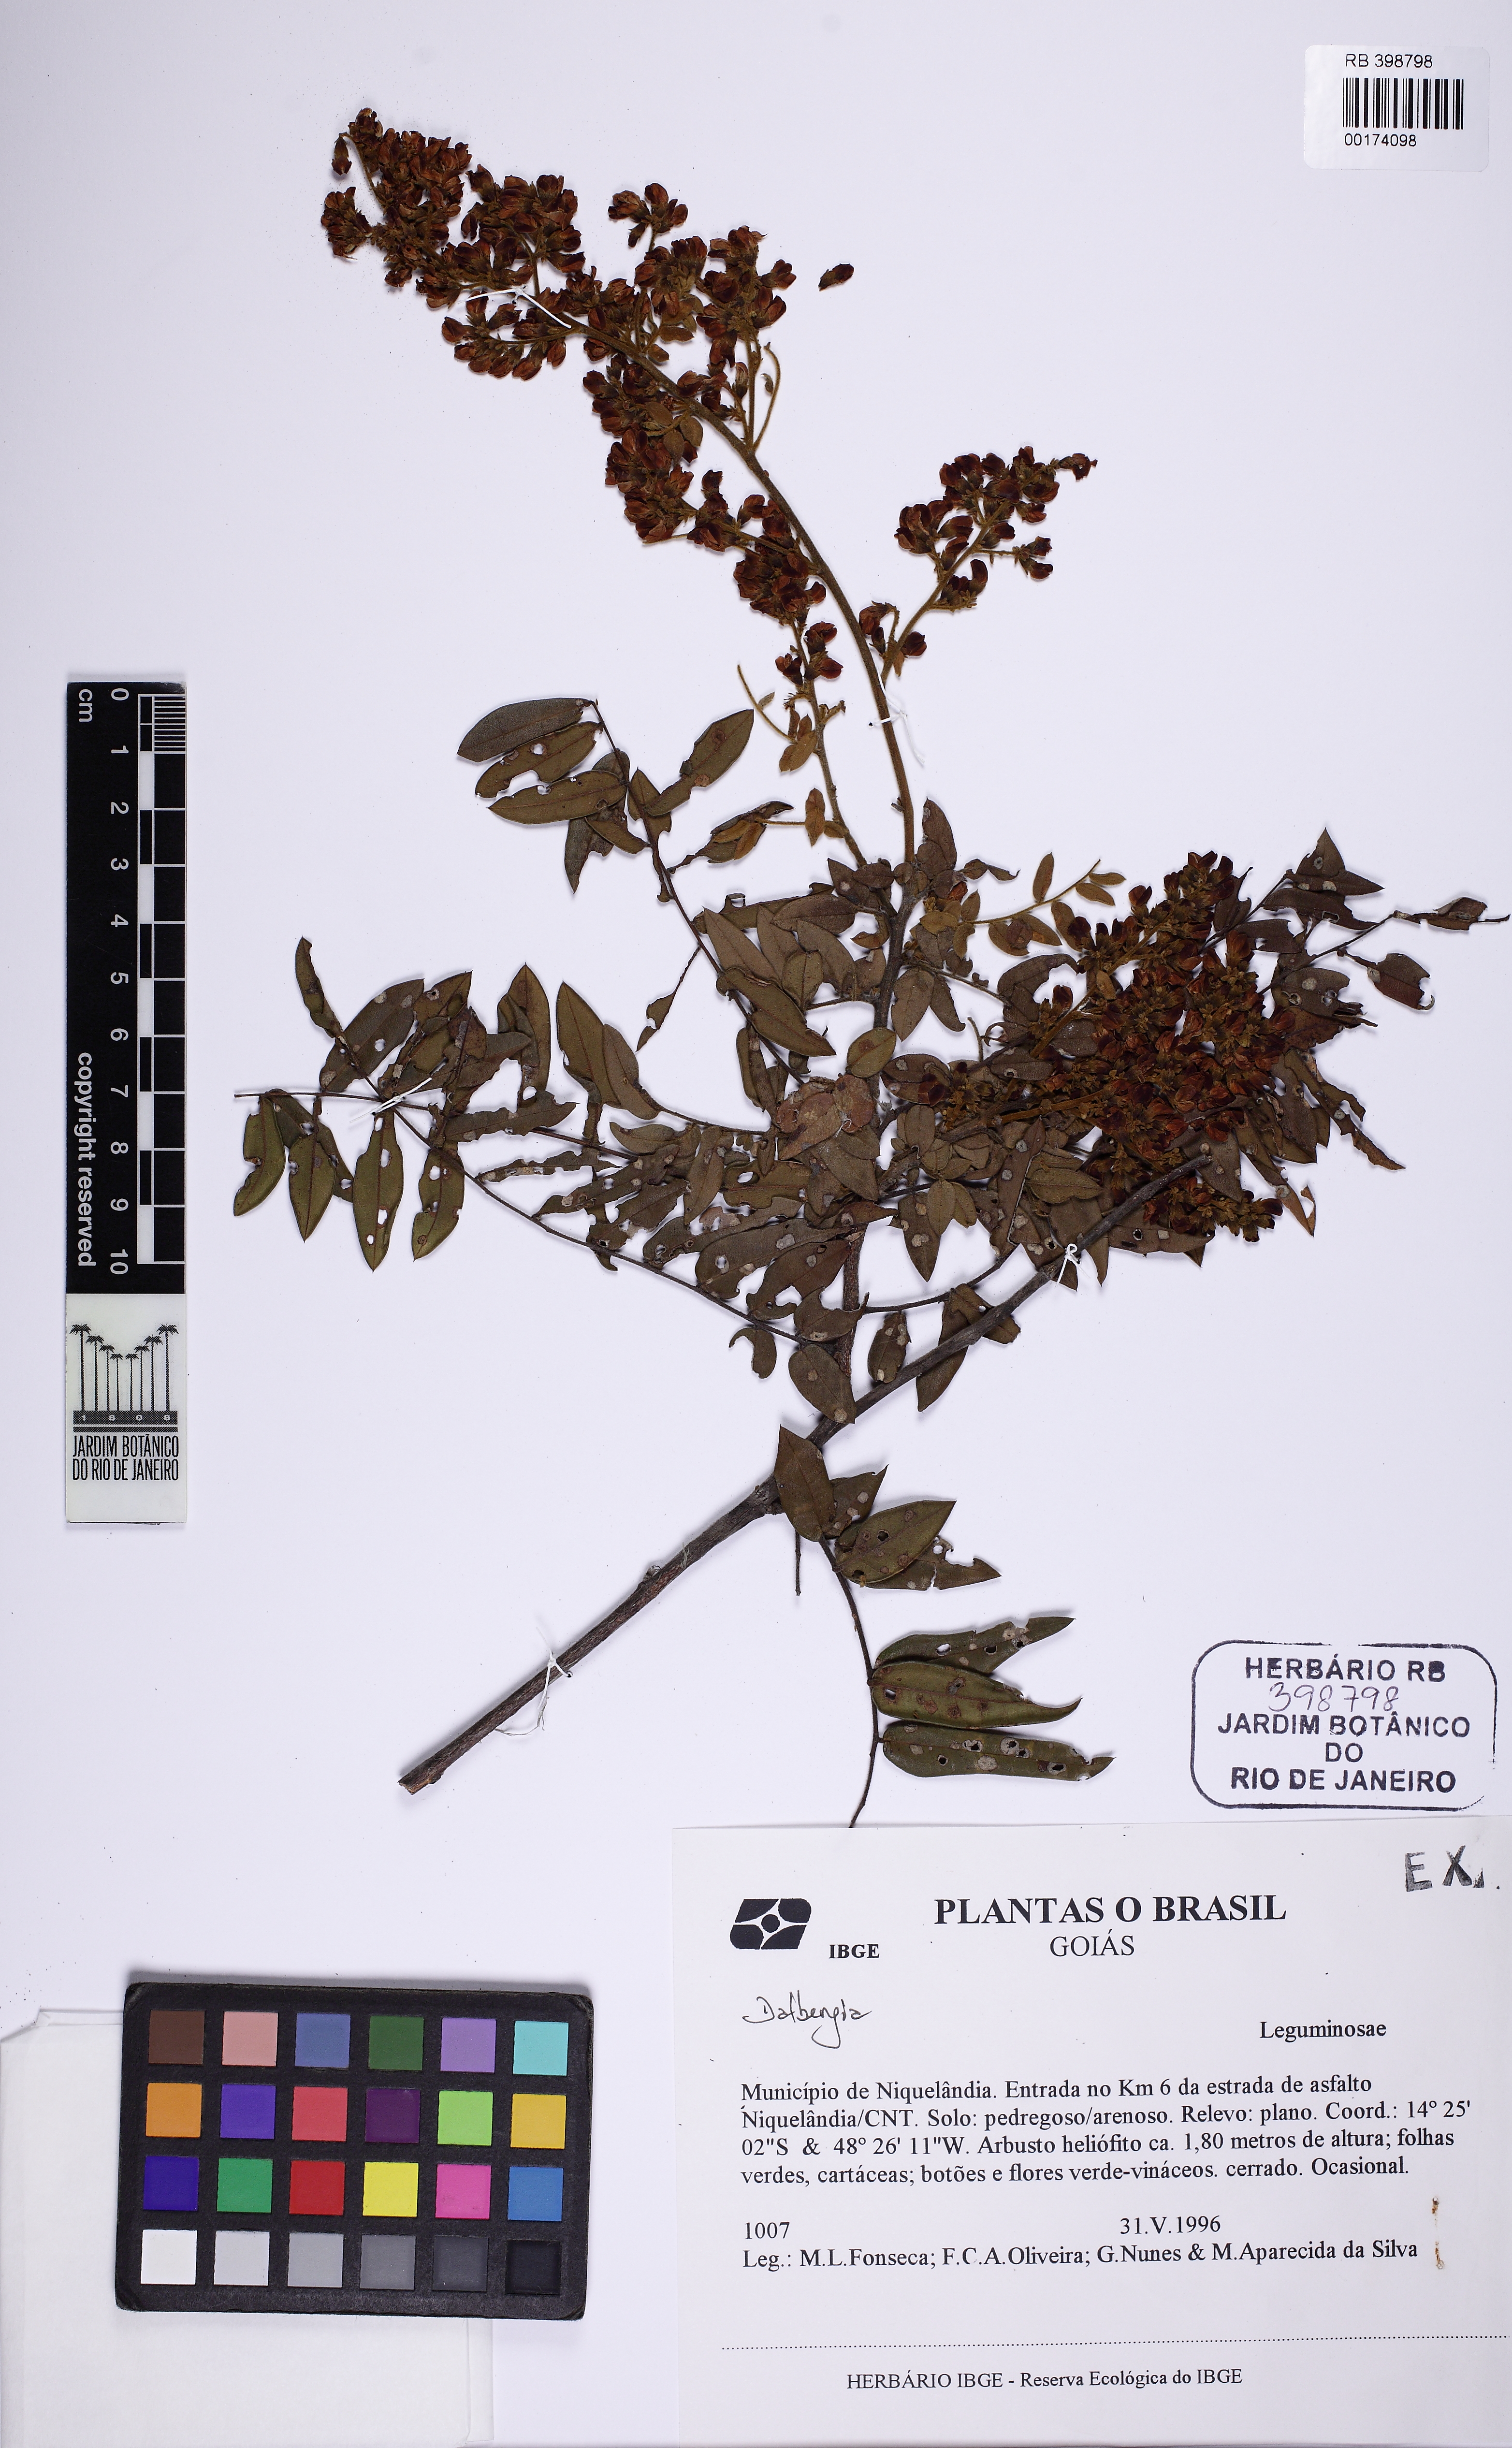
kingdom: Plantae
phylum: Tracheophyta
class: Magnoliopsida
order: Fabales
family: Fabaceae
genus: Dalbergia
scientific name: Dalbergia
